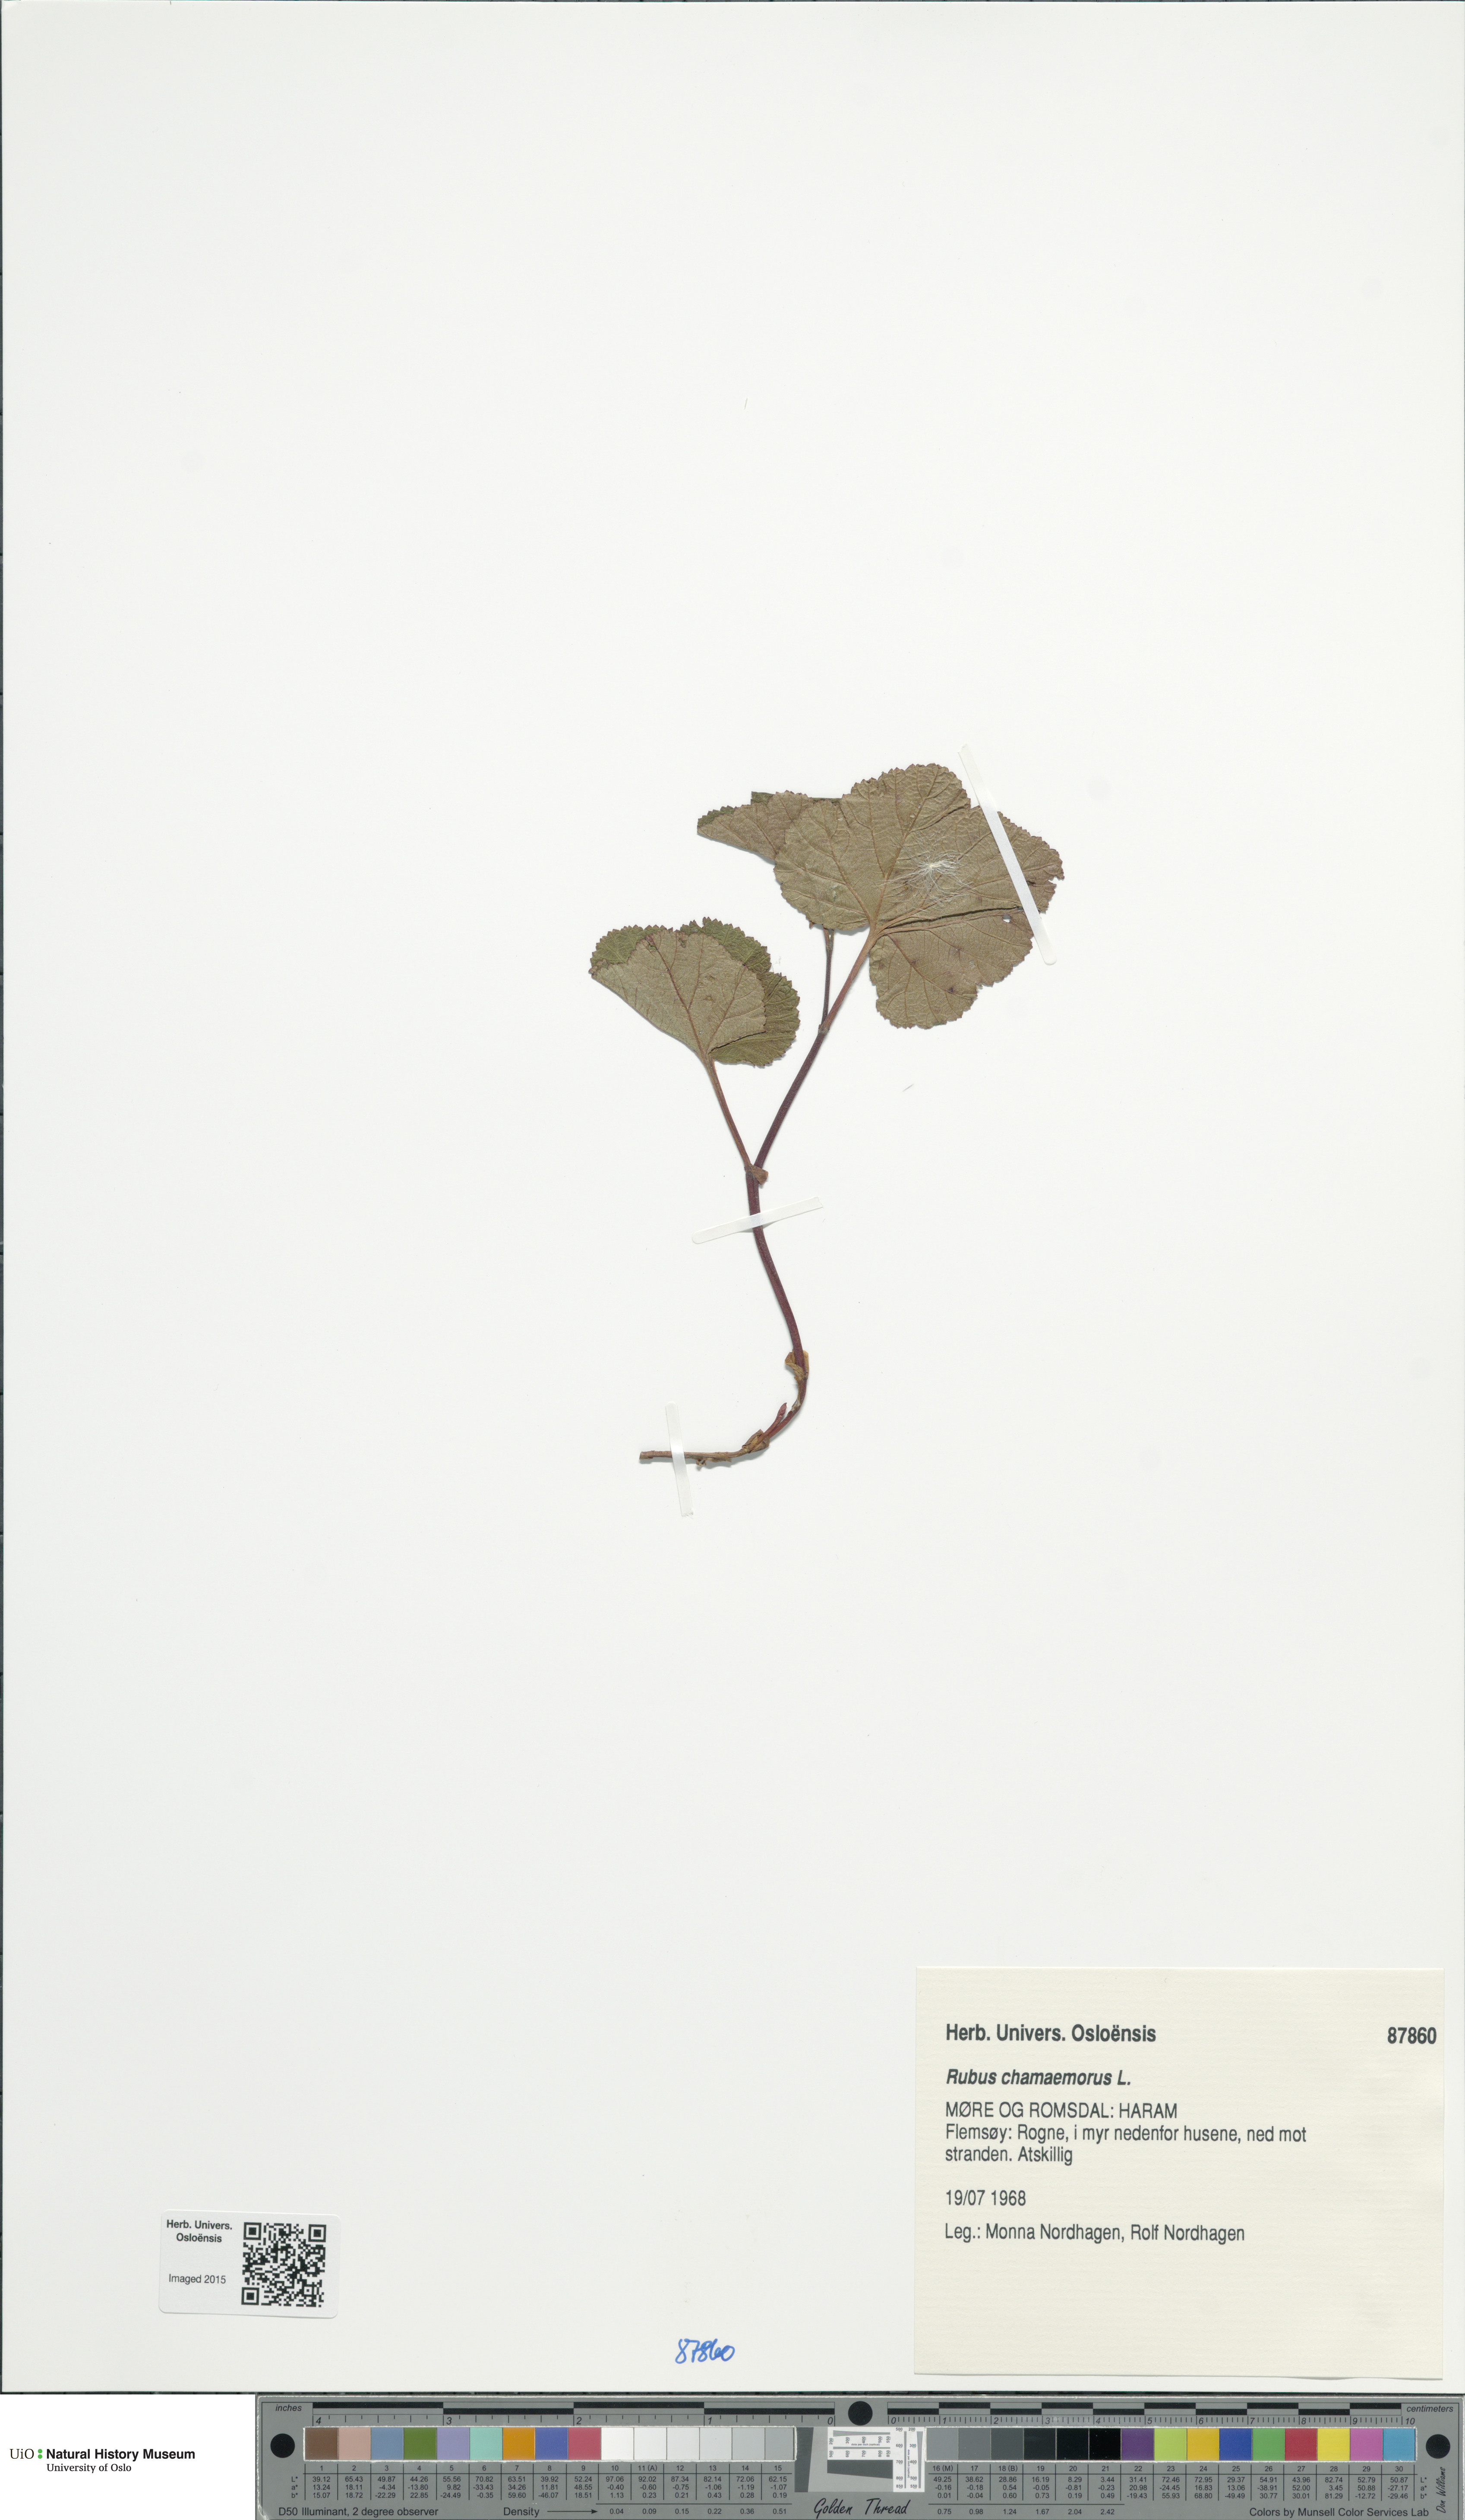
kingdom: Plantae
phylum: Tracheophyta
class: Magnoliopsida
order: Rosales
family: Rosaceae
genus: Rubus
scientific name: Rubus chamaemorus
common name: Cloudberry
